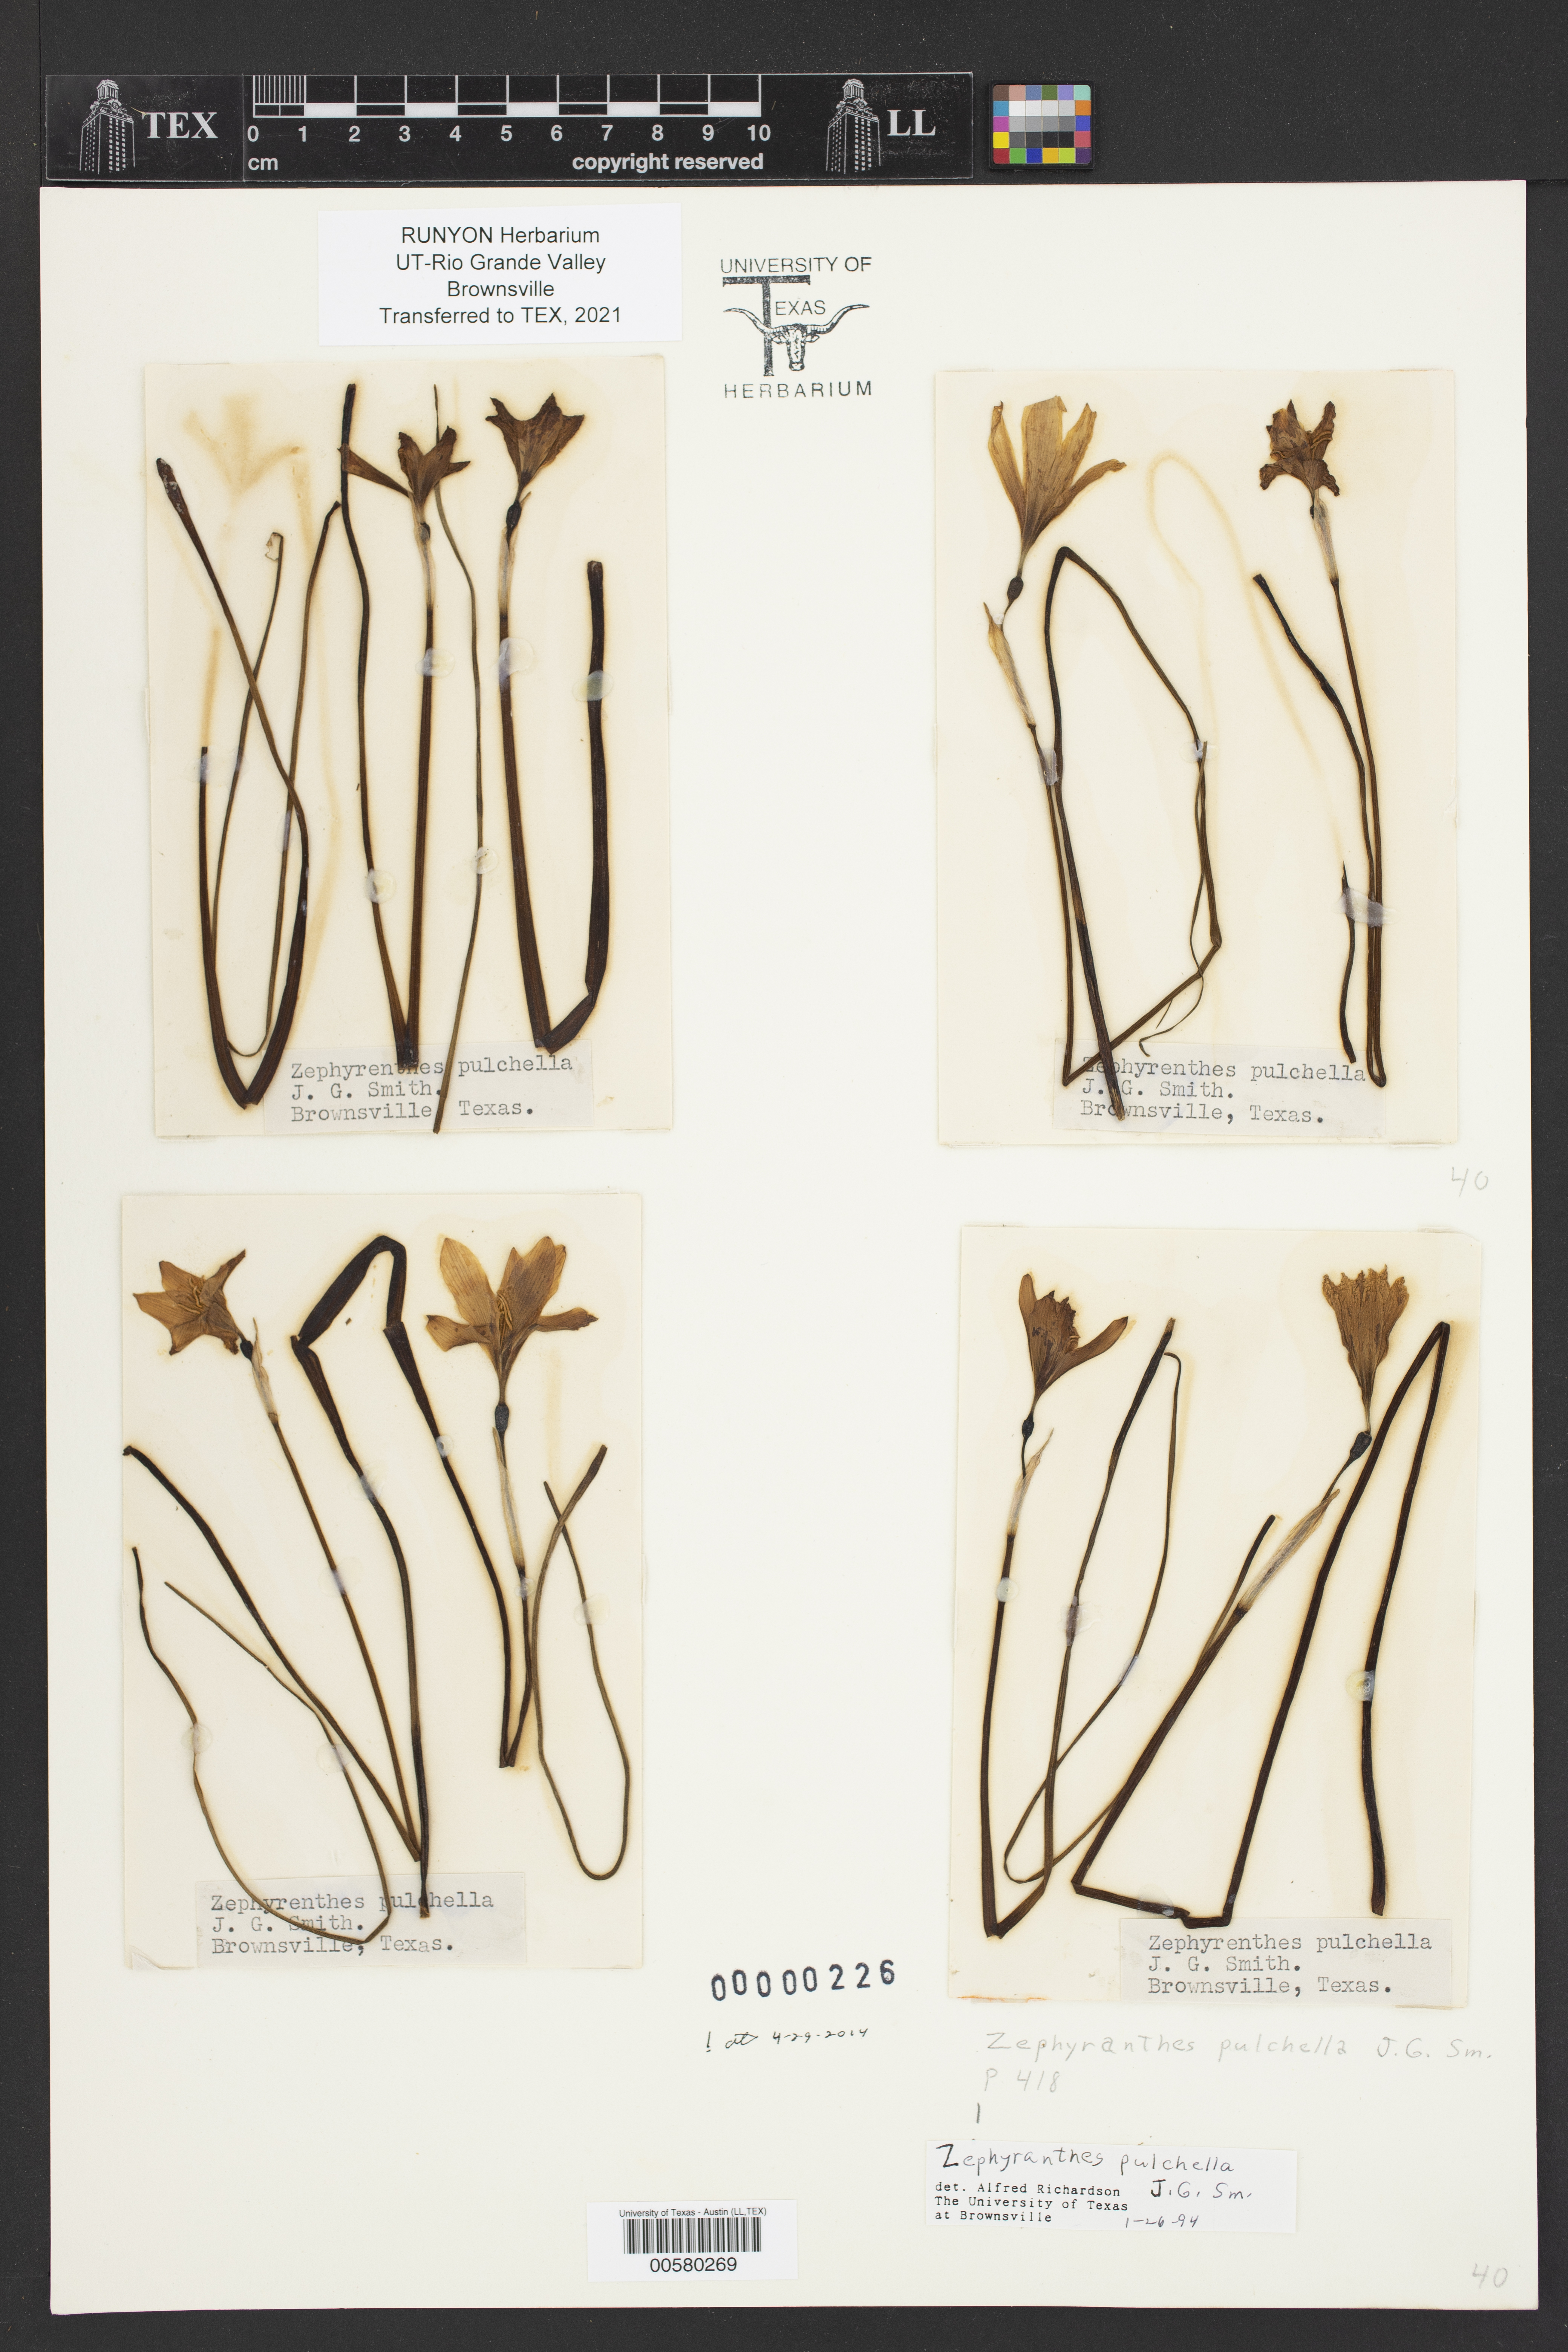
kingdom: Plantae
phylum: Tracheophyta
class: Liliopsida
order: Asparagales
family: Amaryllidaceae
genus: Zephyranthes
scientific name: Zephyranthes pulchella
